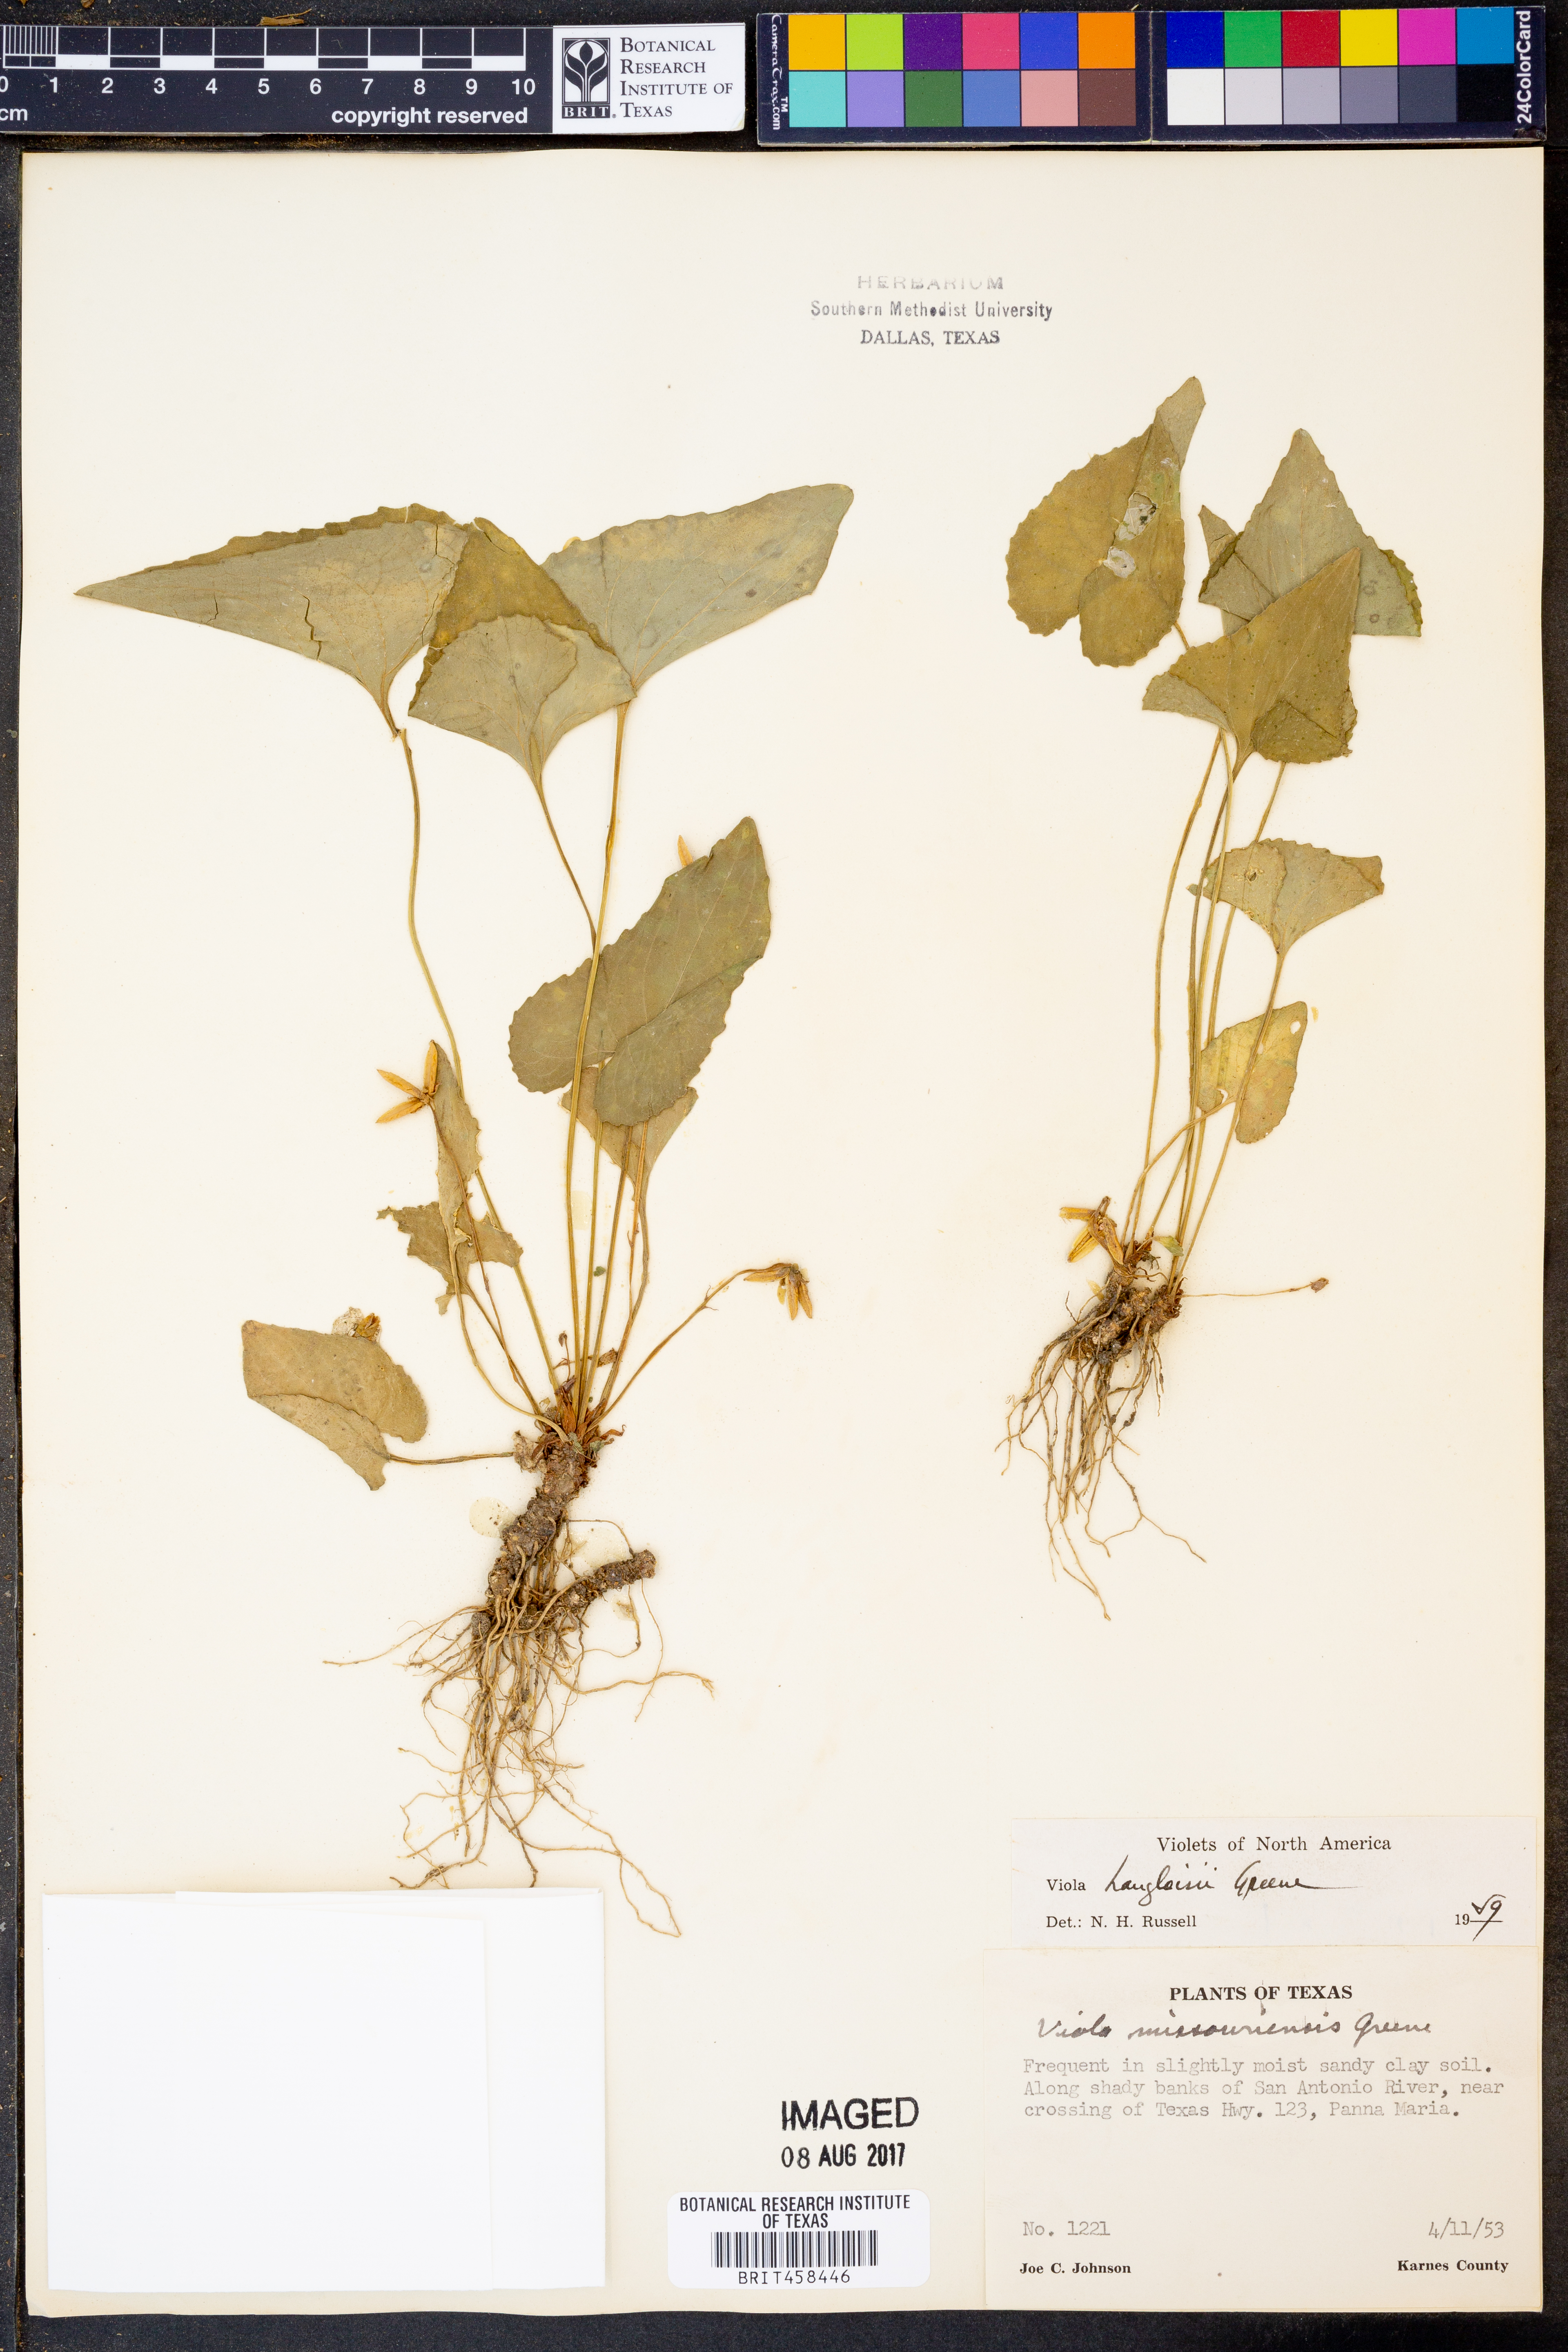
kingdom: Plantae
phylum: Tracheophyta
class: Magnoliopsida
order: Malpighiales
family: Violaceae
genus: Viola
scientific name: Viola langloisii
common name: Langlois' violet
